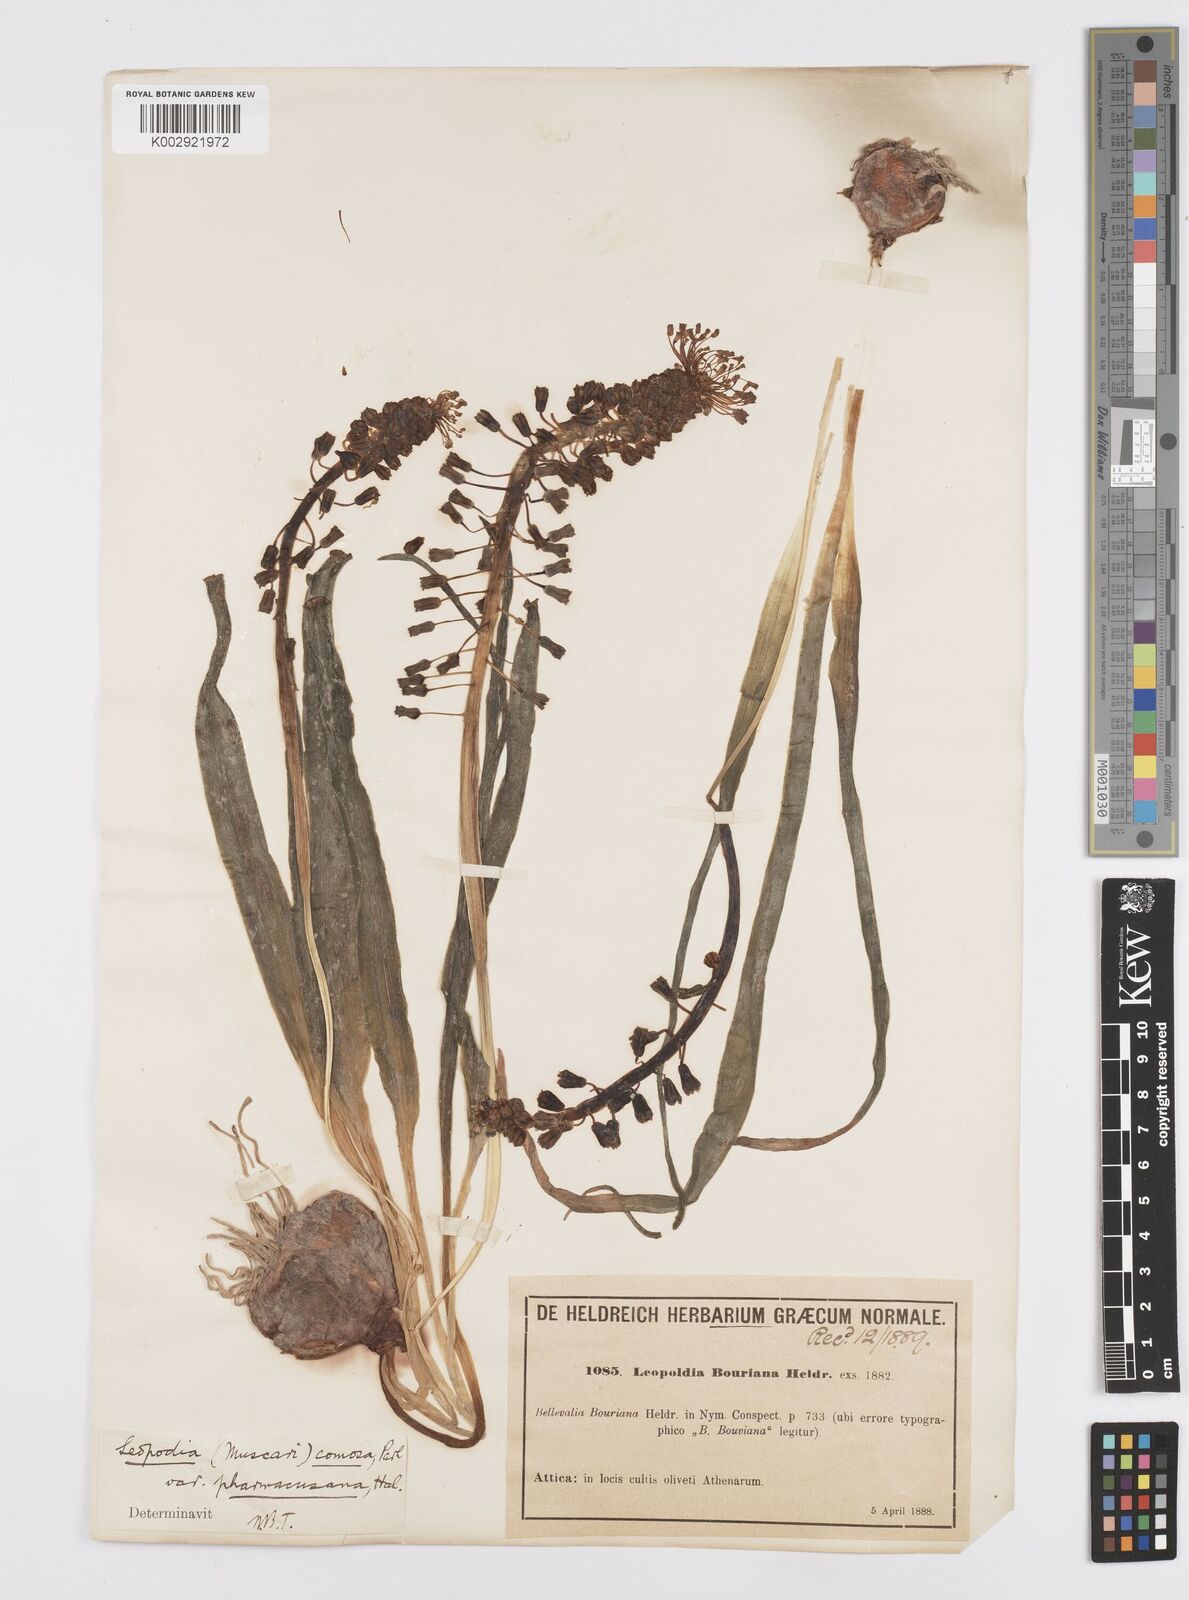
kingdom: Plantae
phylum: Tracheophyta
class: Liliopsida
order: Asparagales
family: Asparagaceae
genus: Muscari
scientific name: Muscari comosum
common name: Tassel hyacinth
